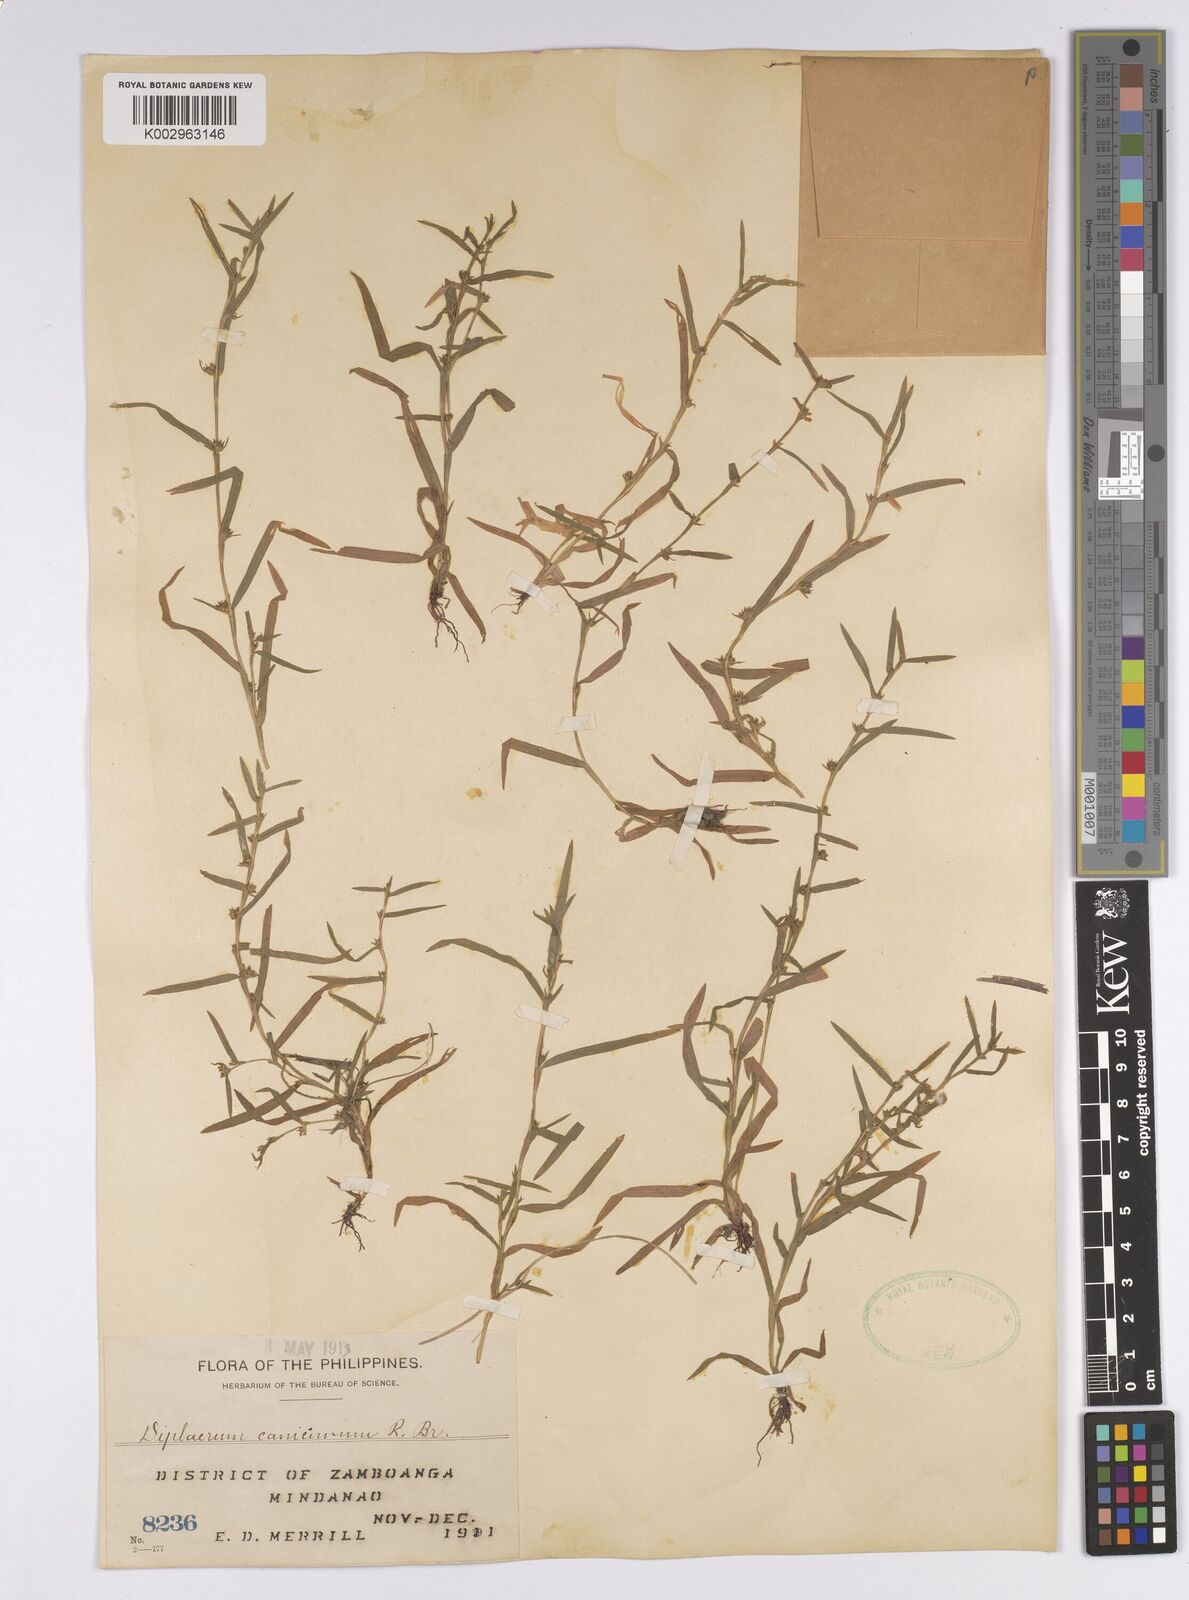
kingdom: Plantae
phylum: Tracheophyta
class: Liliopsida
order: Poales
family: Cyperaceae
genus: Diplacrum
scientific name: Diplacrum caricinum
